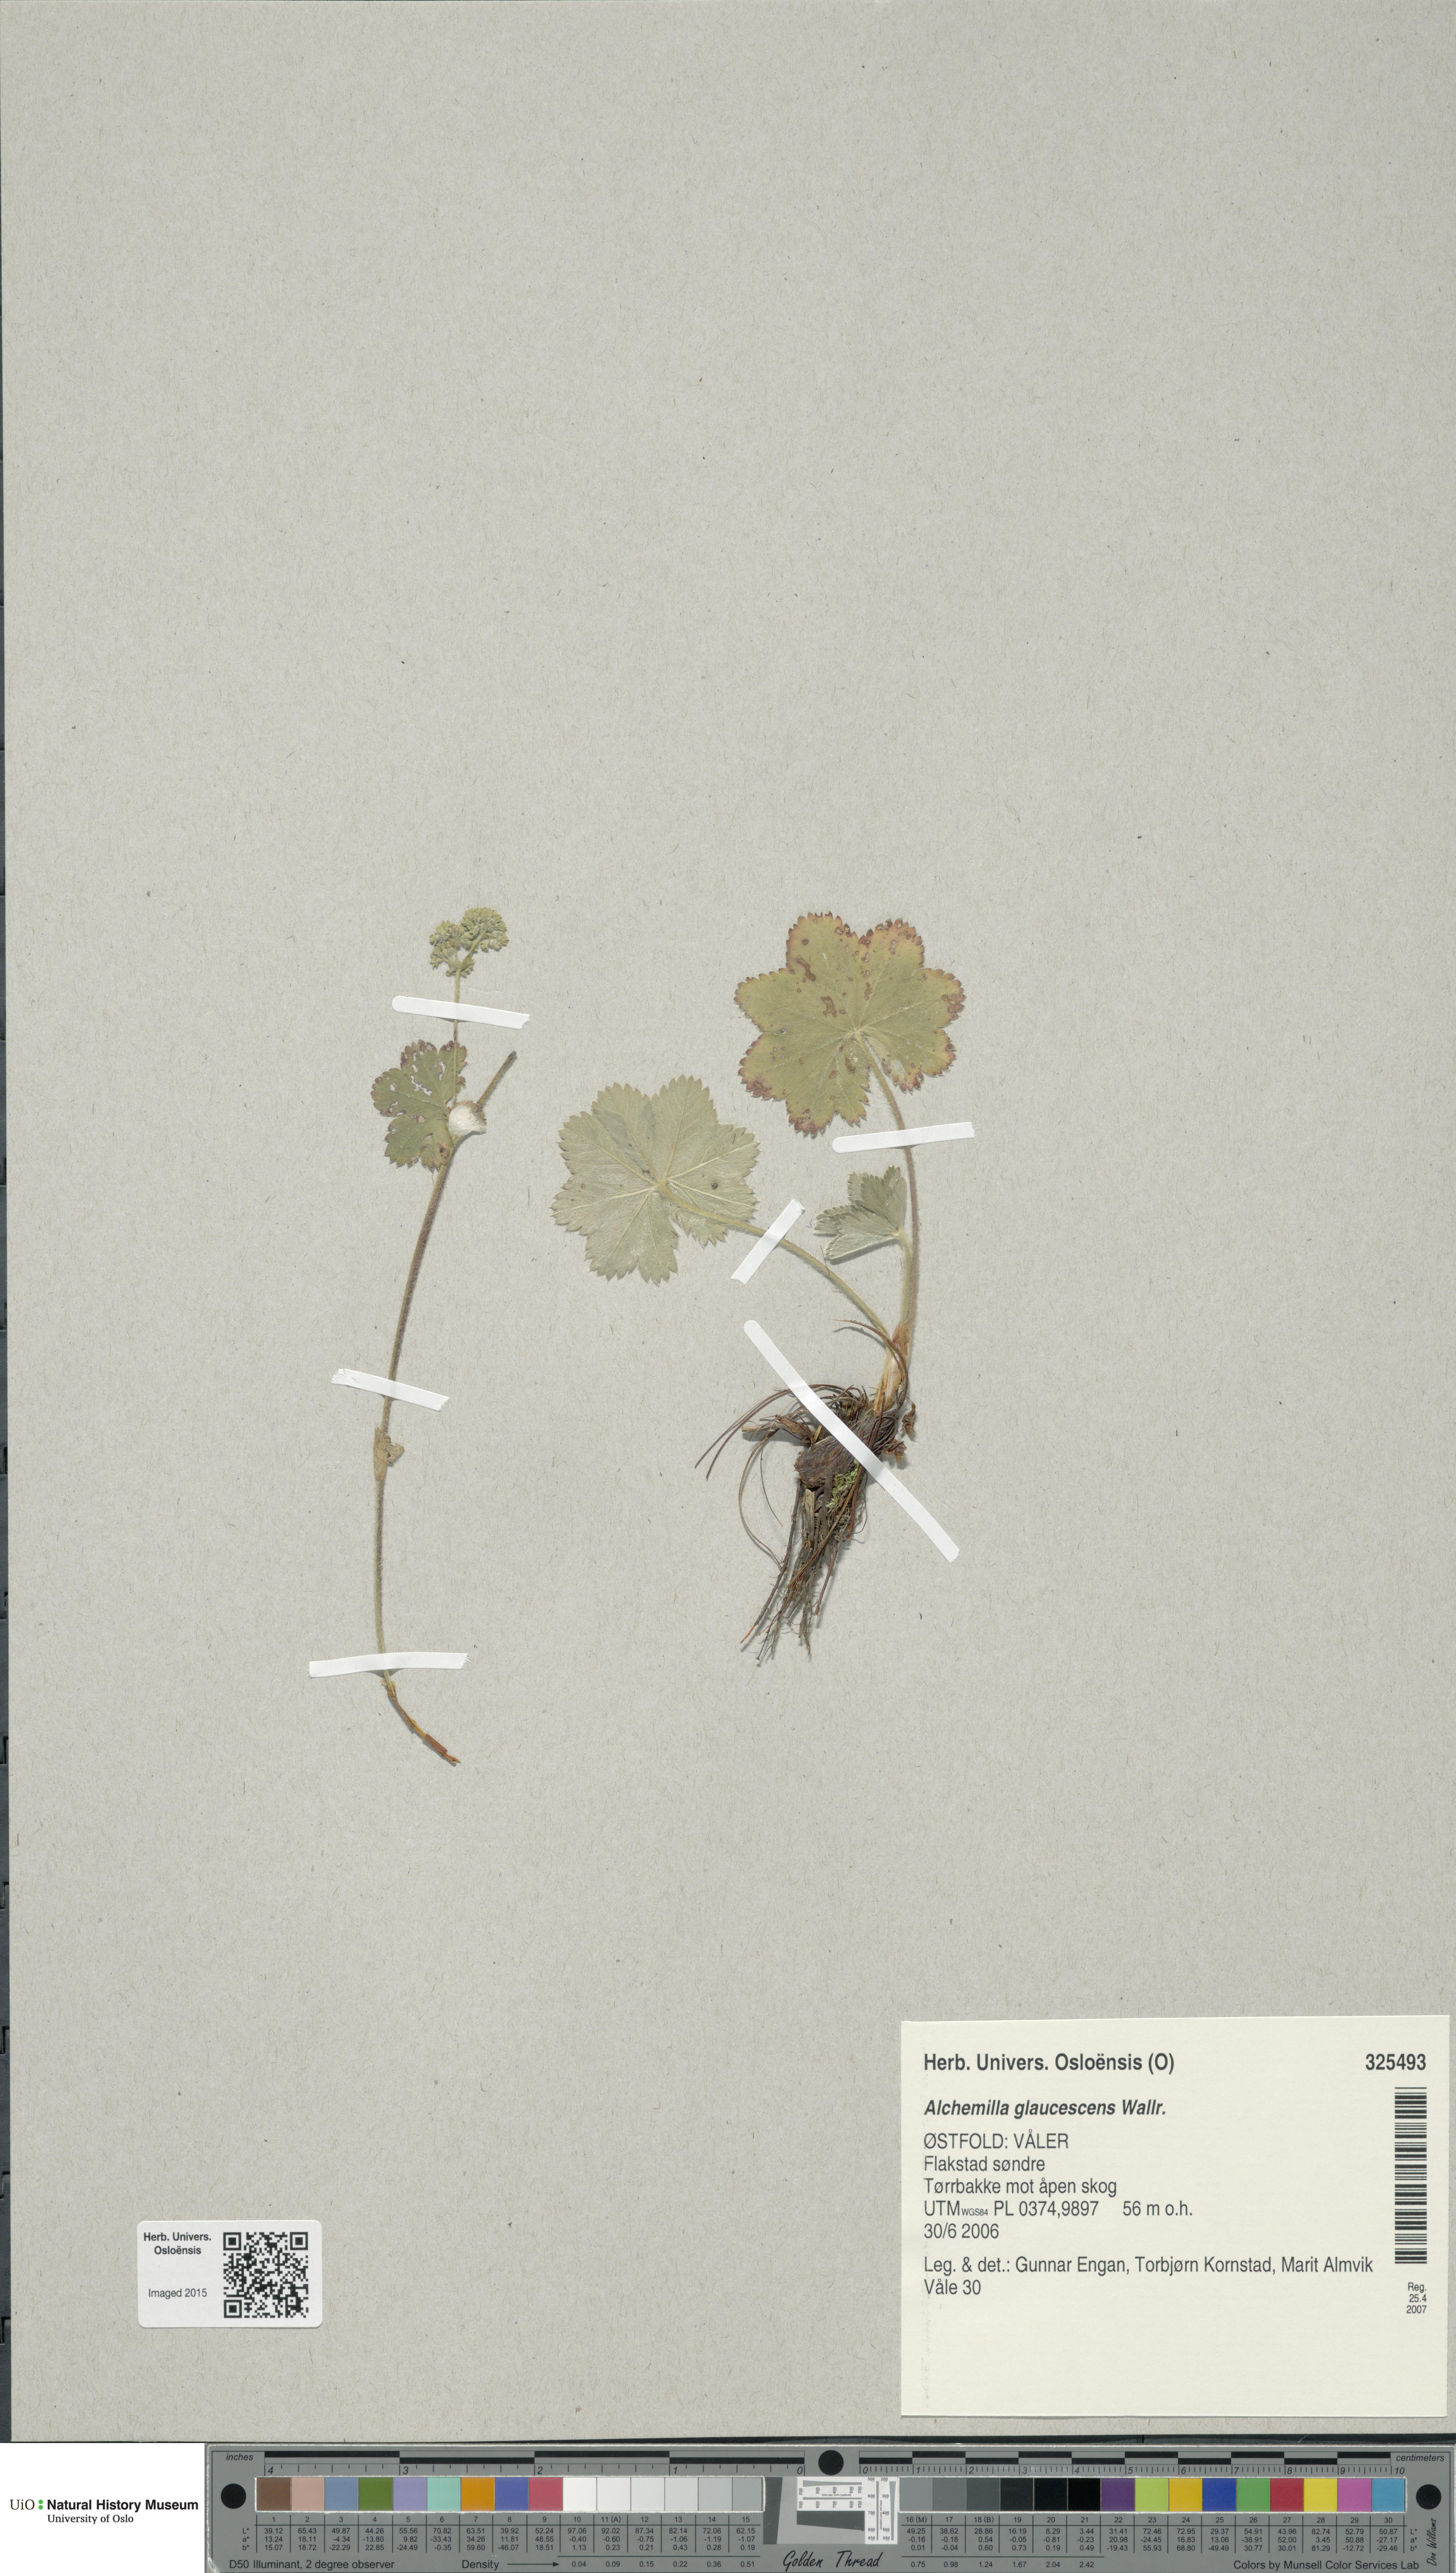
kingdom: Plantae
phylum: Tracheophyta
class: Magnoliopsida
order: Rosales
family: Rosaceae
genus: Alchemilla
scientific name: Alchemilla glaucescens
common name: Silky lady's mantle
